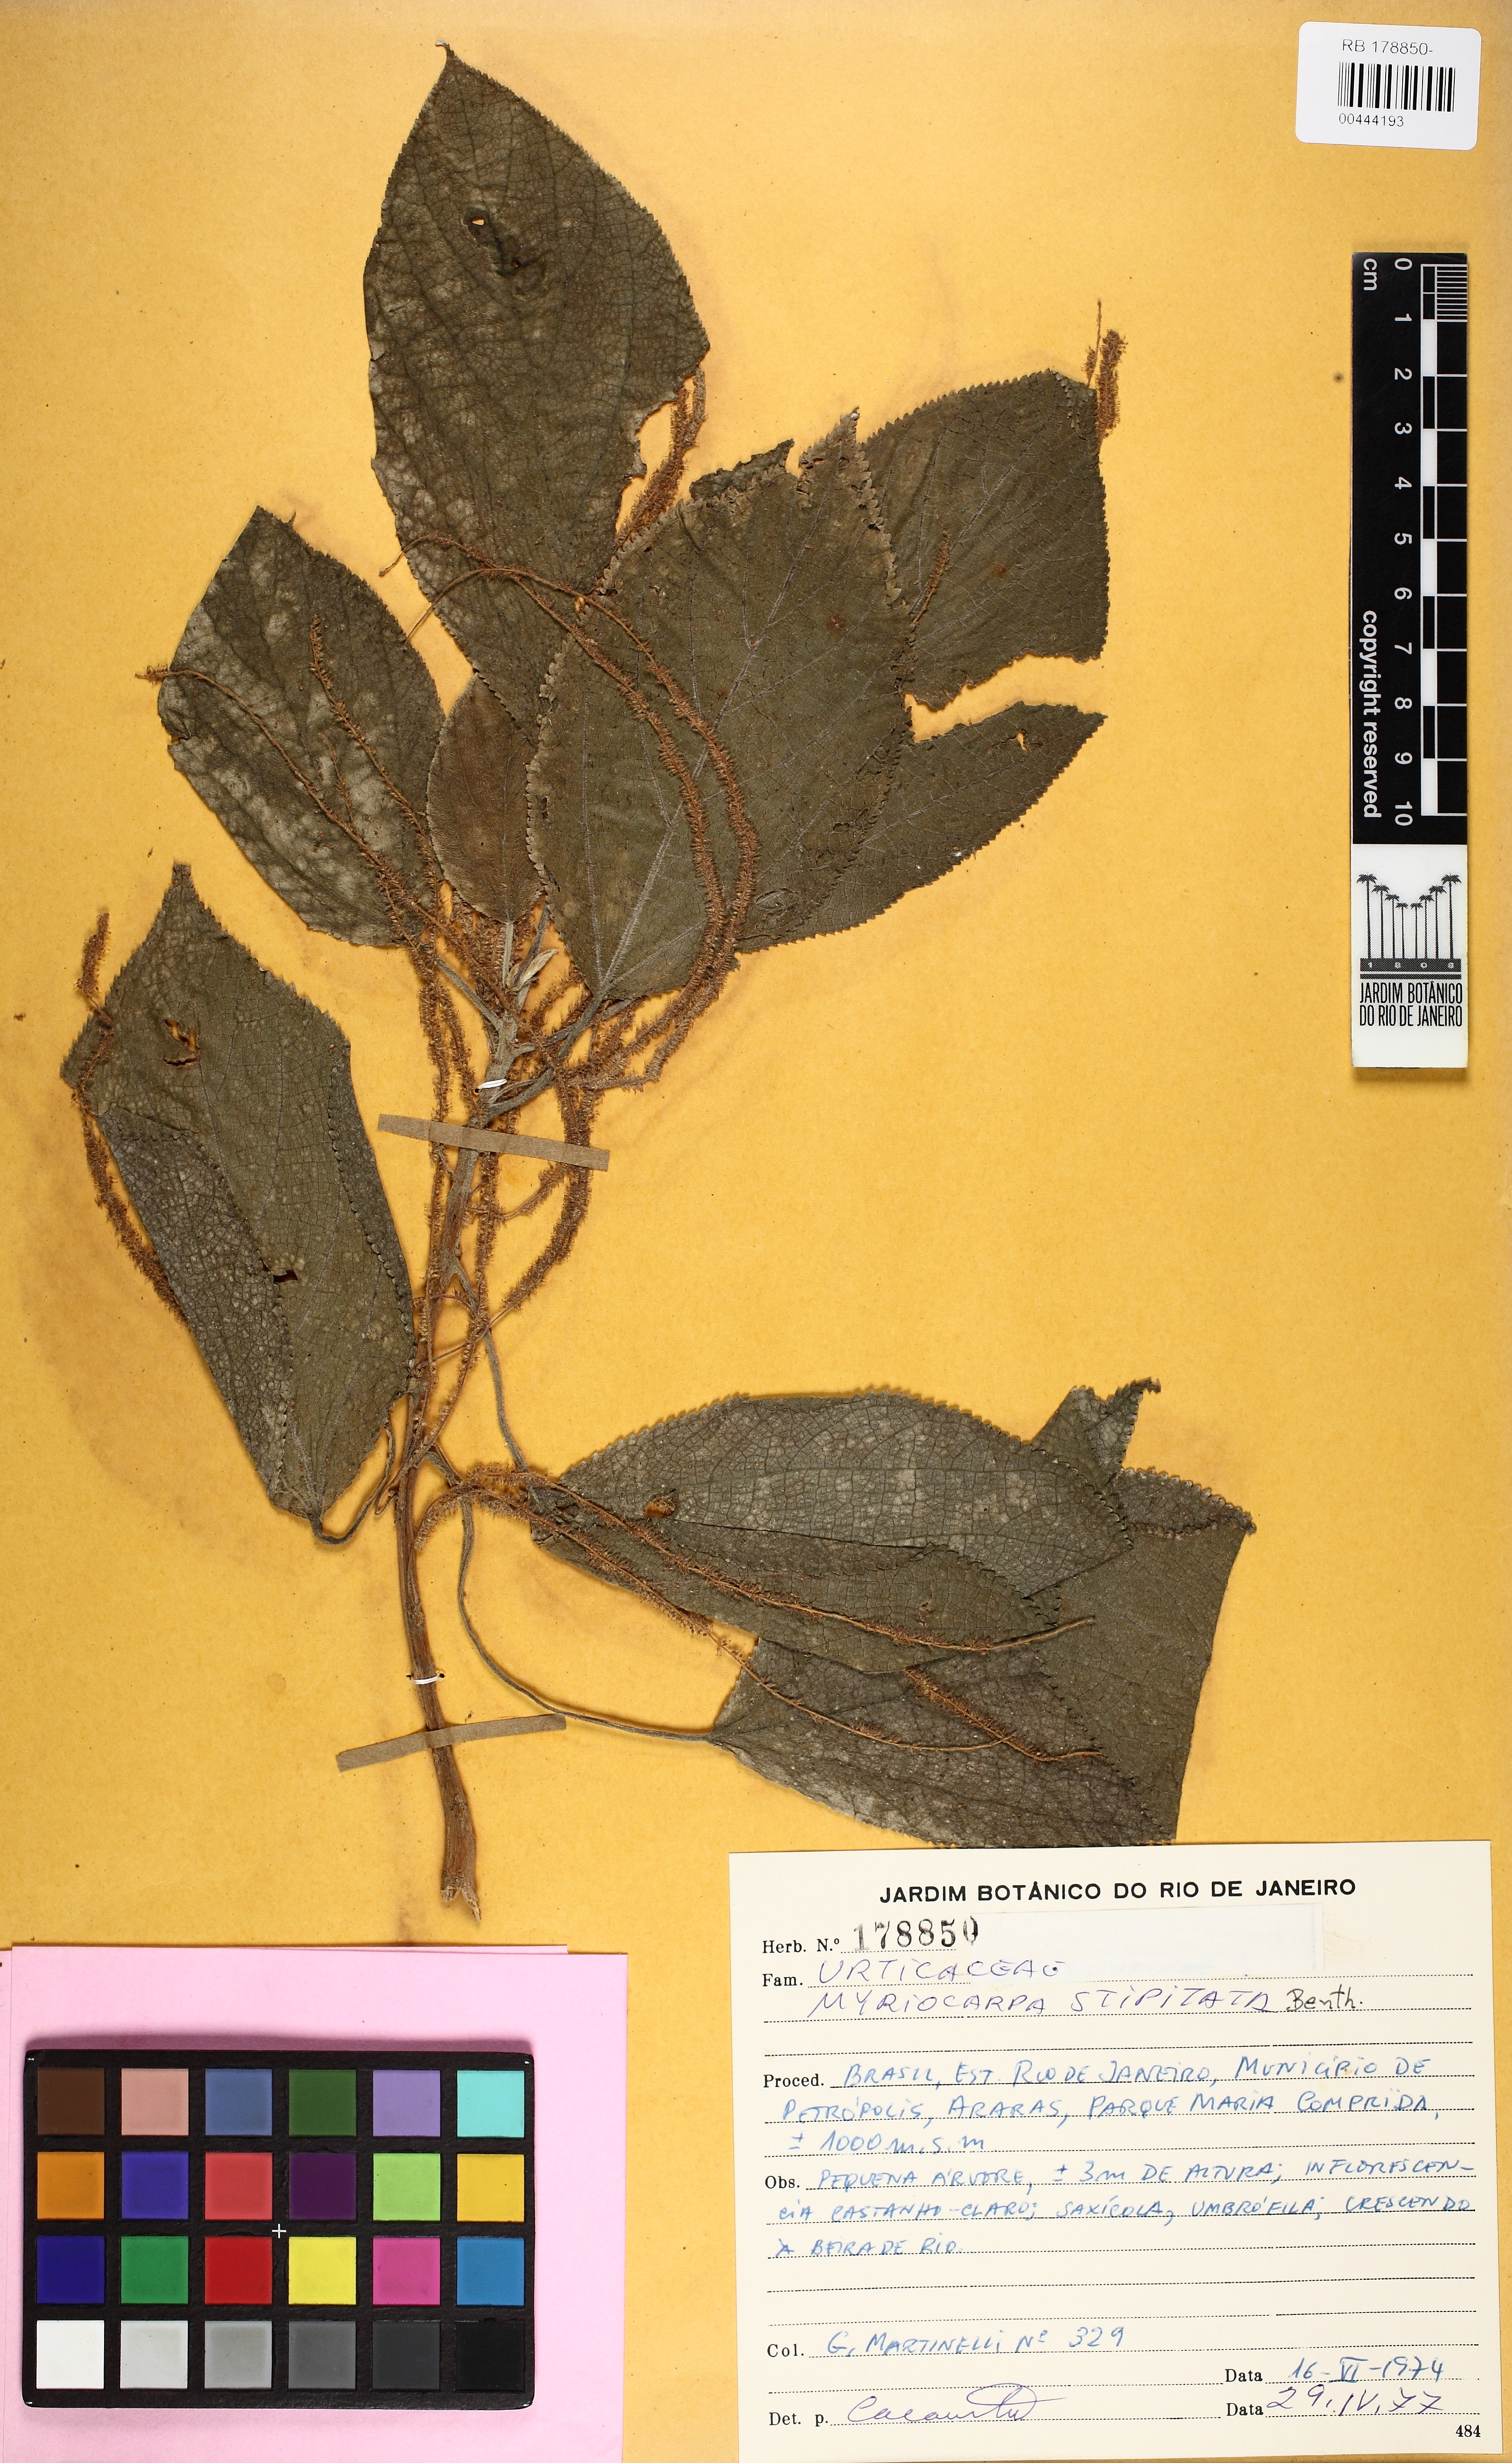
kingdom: Plantae
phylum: Tracheophyta
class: Magnoliopsida
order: Rosales
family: Urticaceae
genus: Myriocarpa
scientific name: Myriocarpa stipitata
